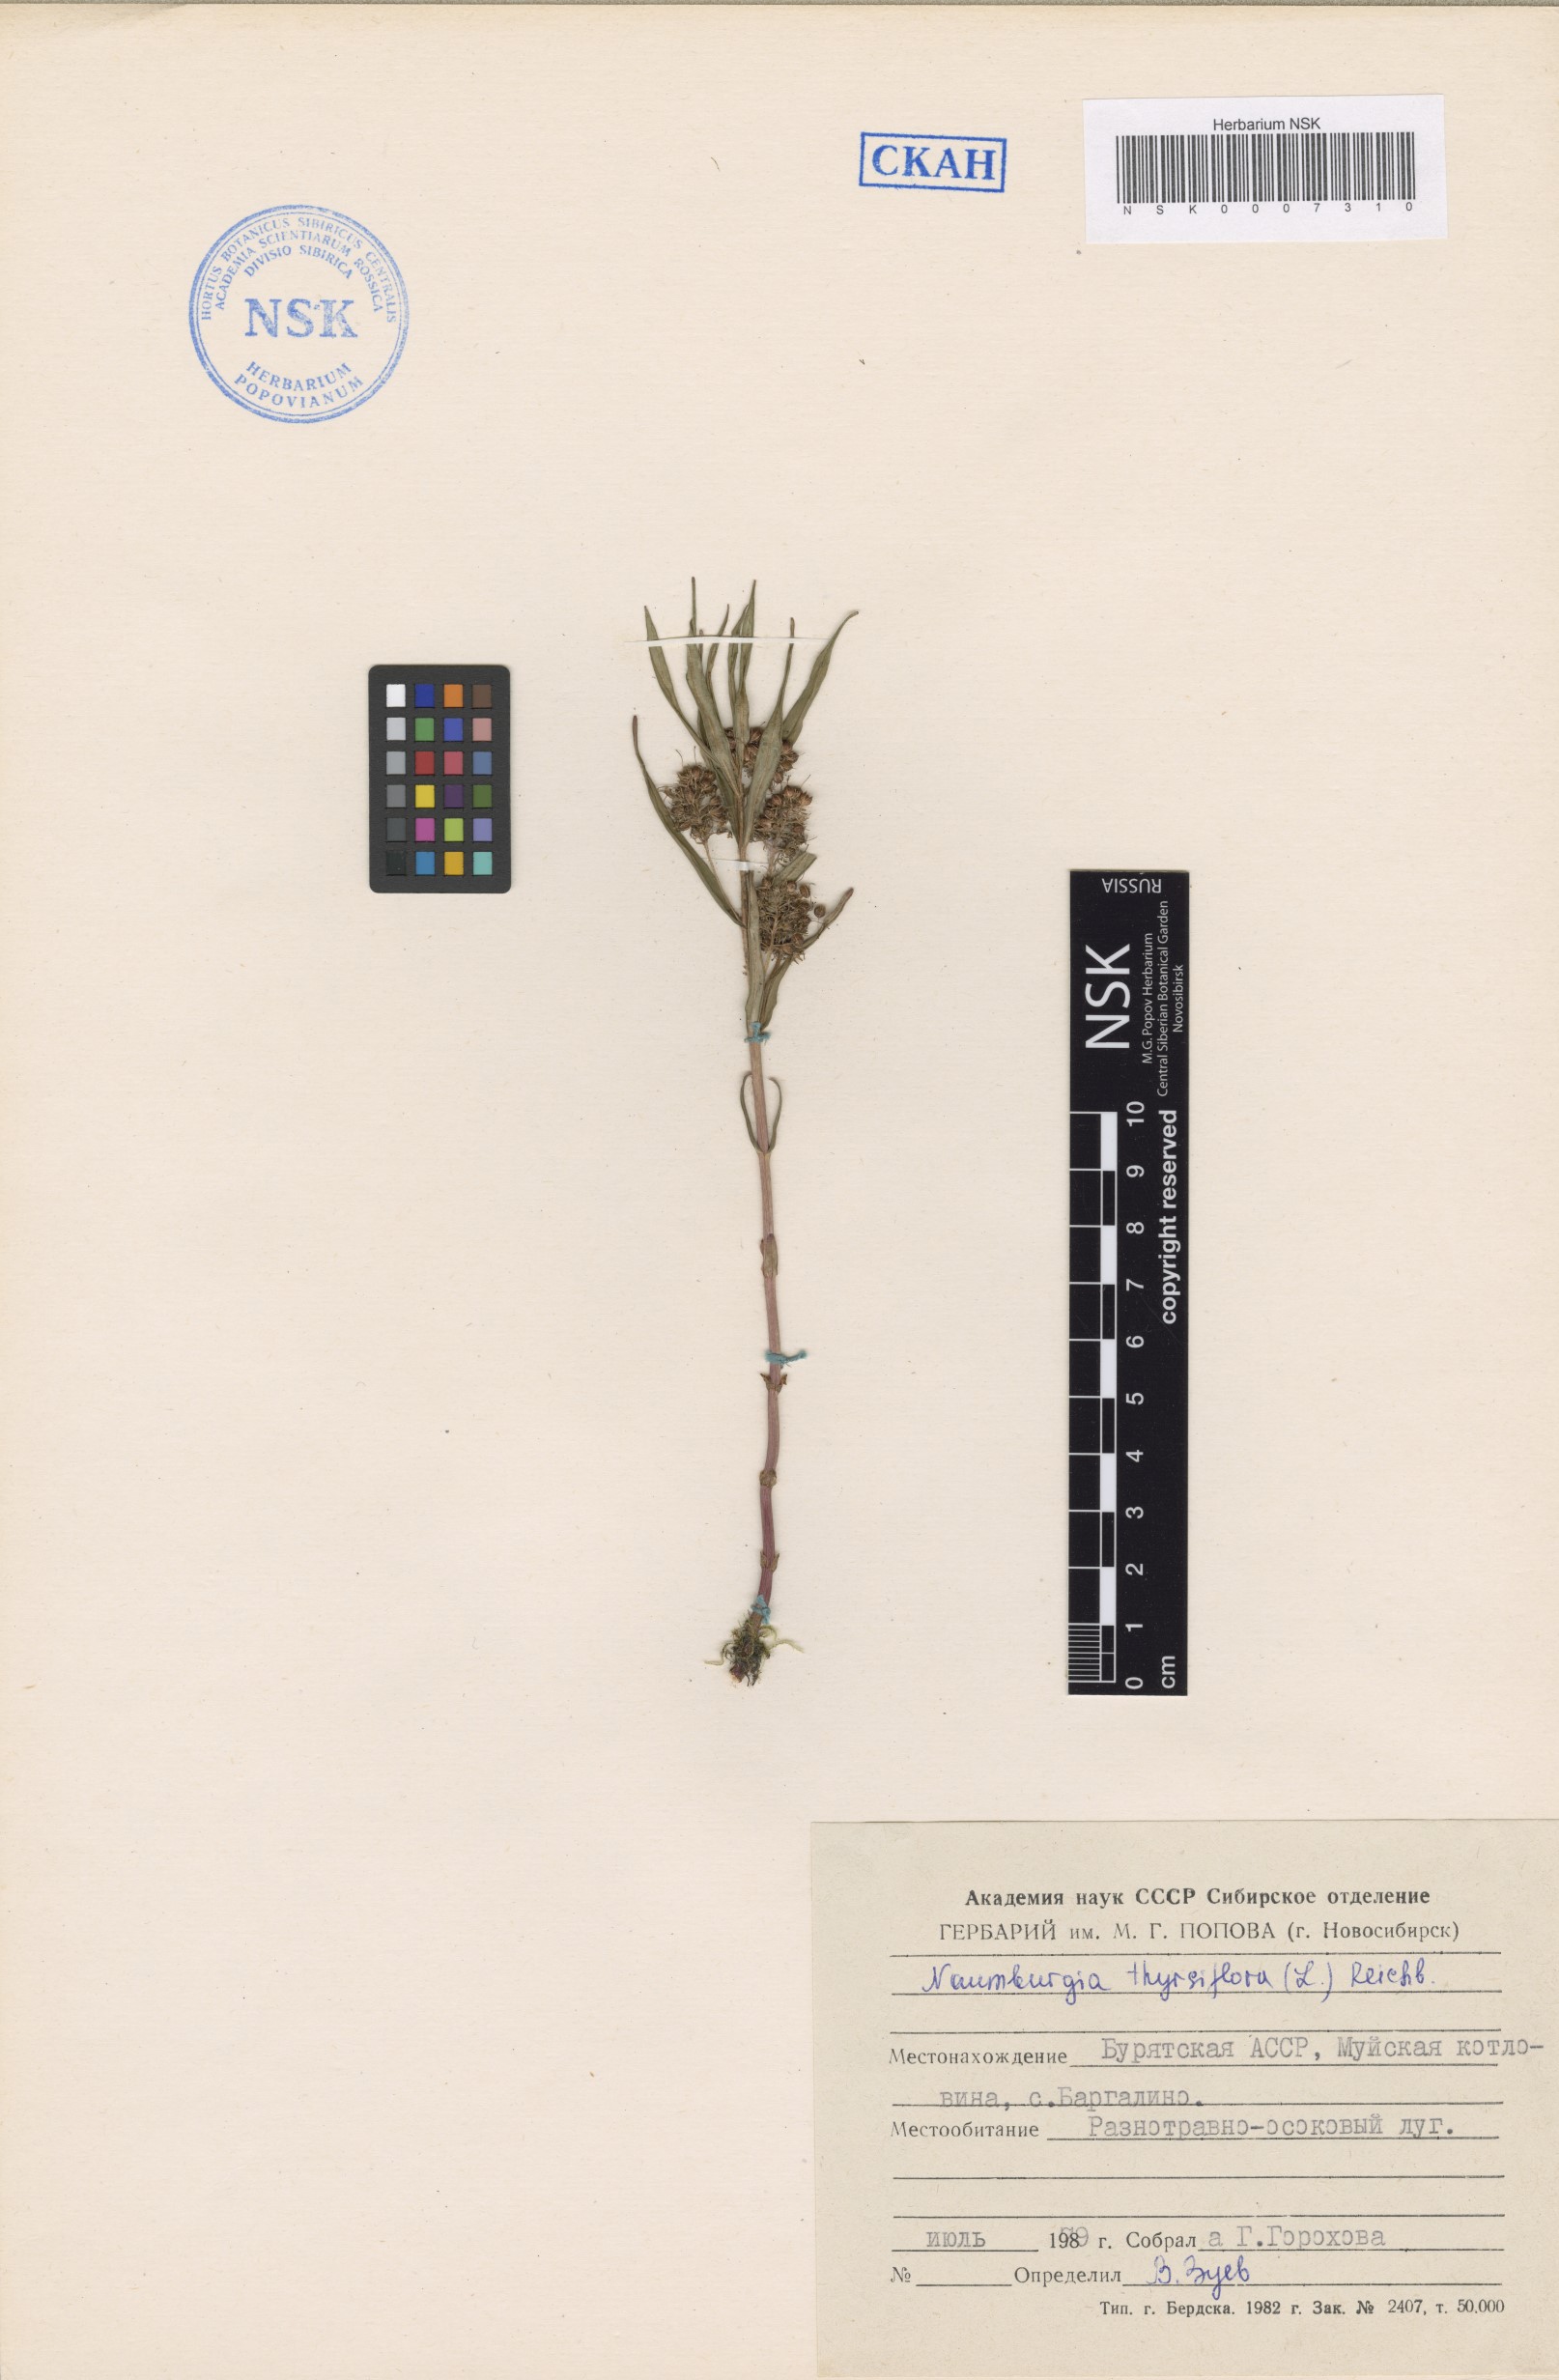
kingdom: Plantae
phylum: Tracheophyta
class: Magnoliopsida
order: Ericales
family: Primulaceae
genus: Lysimachia
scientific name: Lysimachia thyrsiflora
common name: Tufted loosestrife
